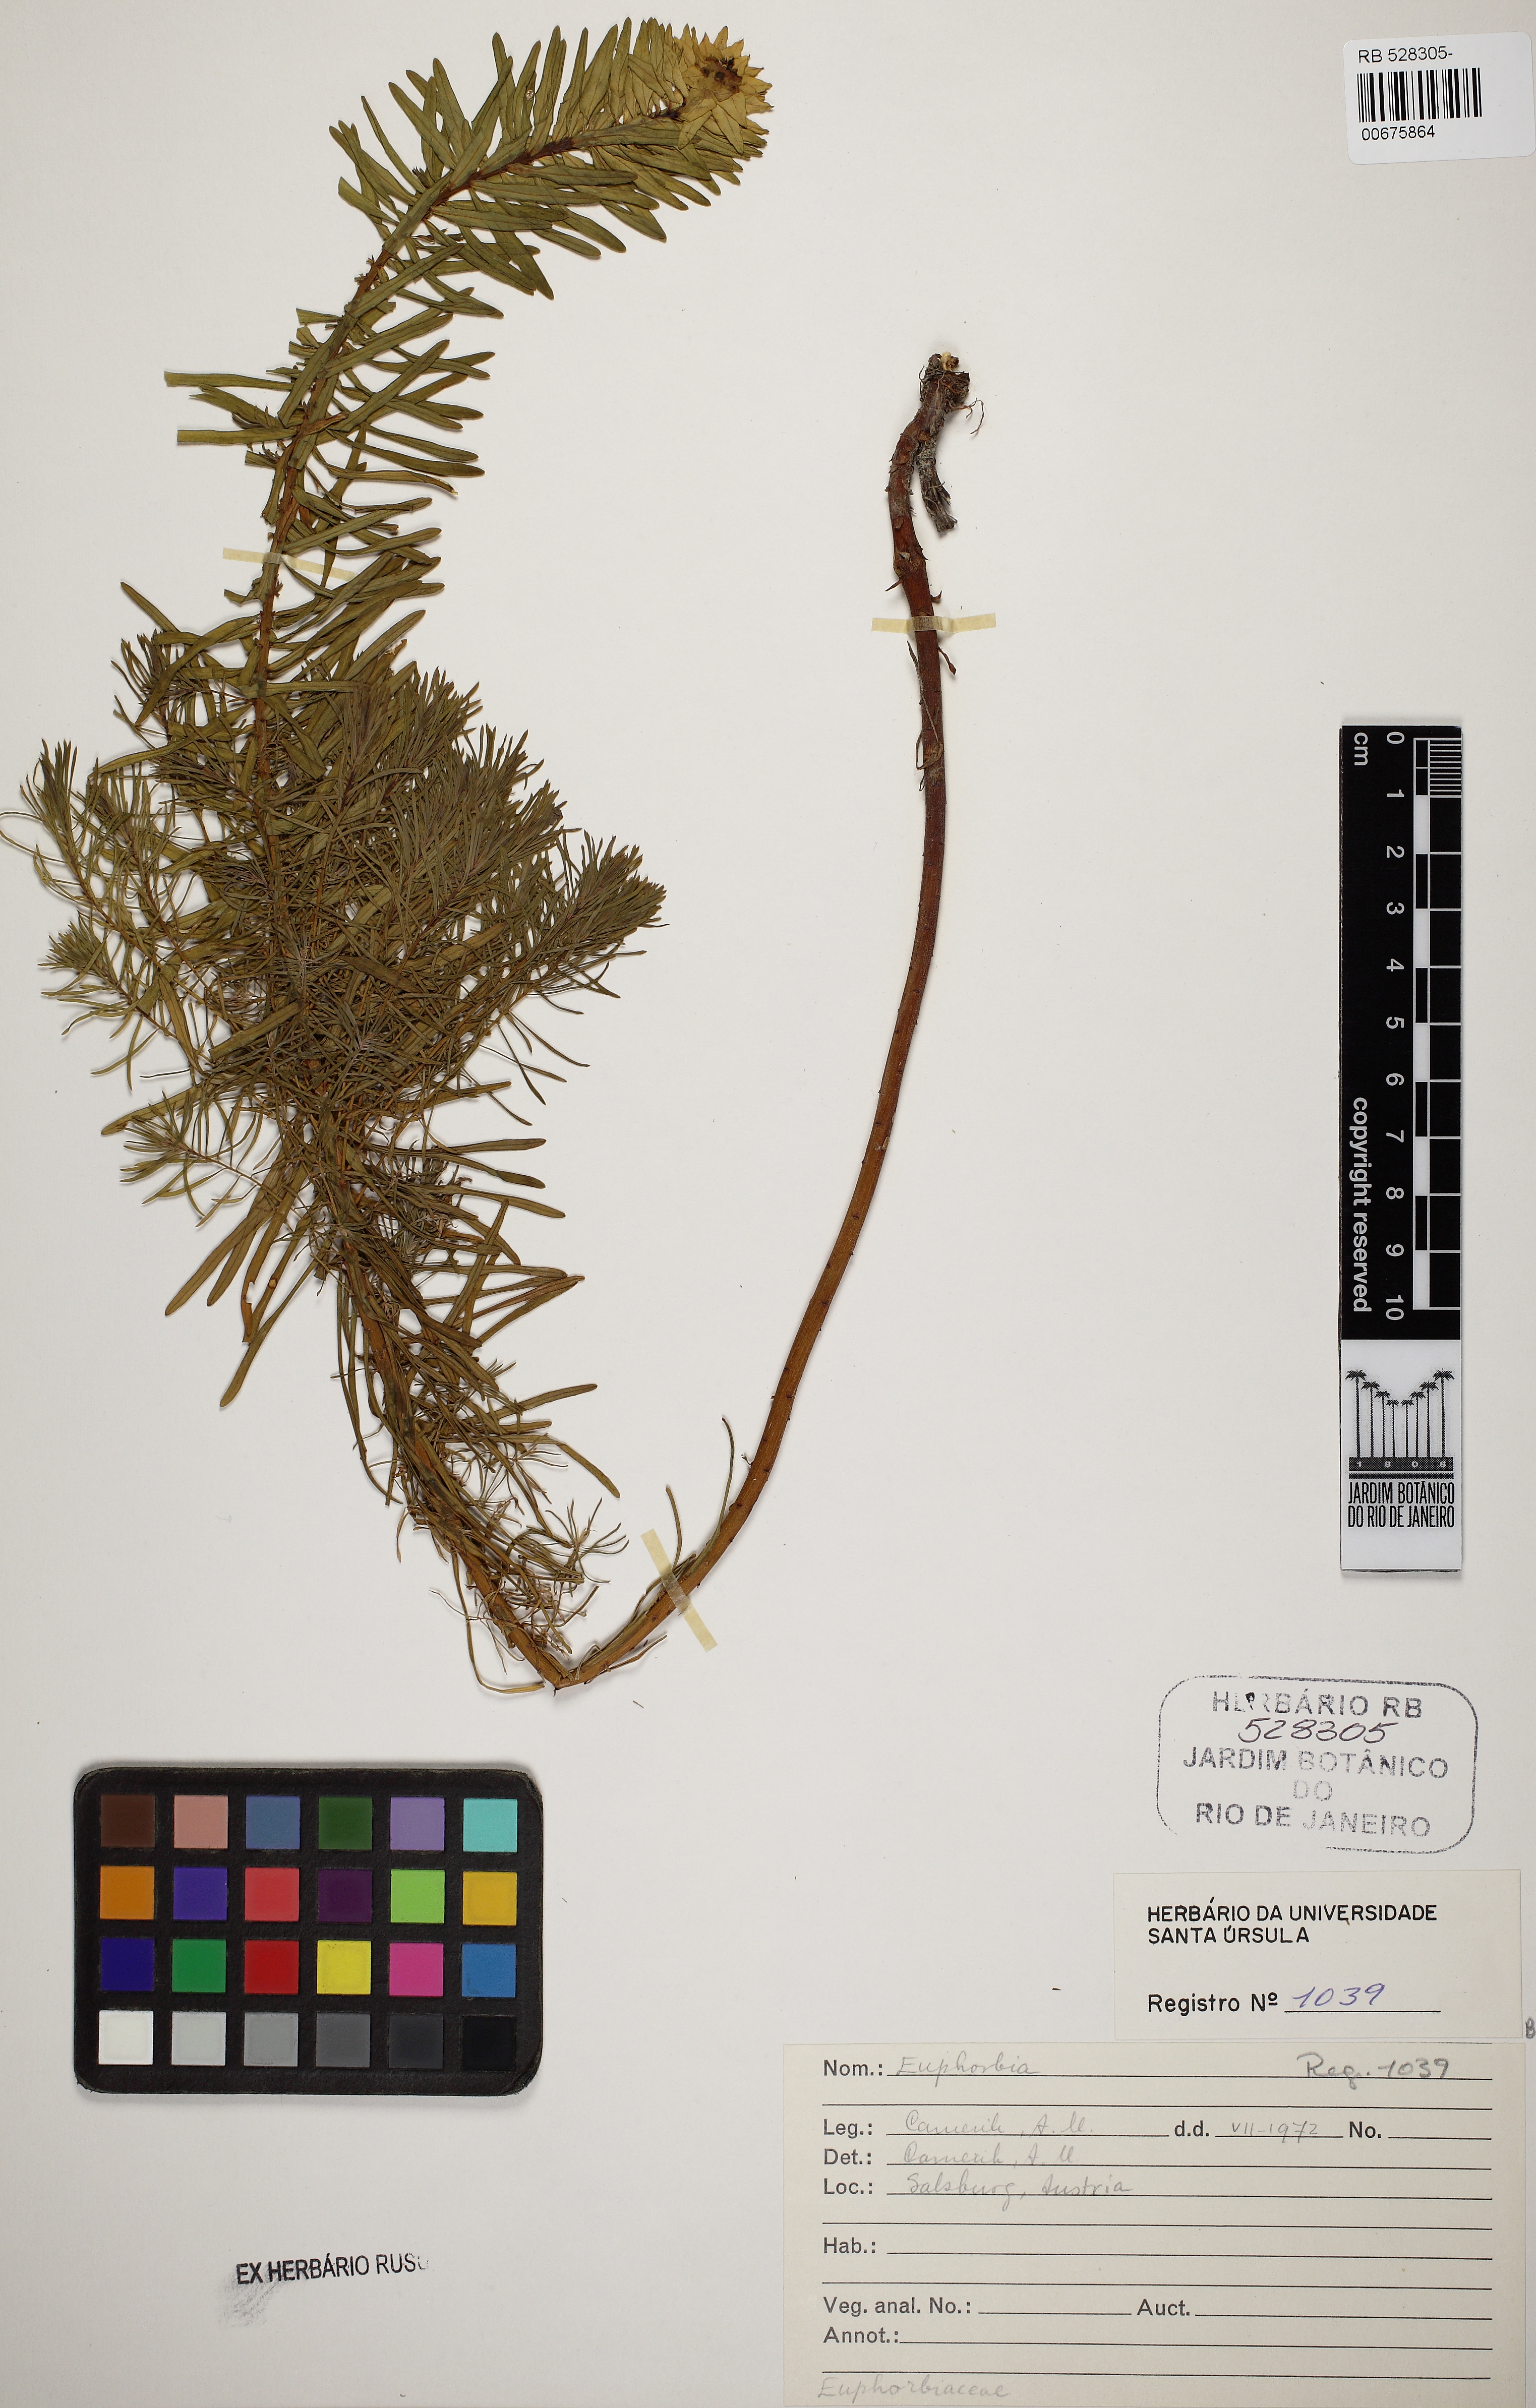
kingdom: Plantae
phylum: Tracheophyta
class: Magnoliopsida
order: Malpighiales
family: Euphorbiaceae
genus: Euphorbia
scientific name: Euphorbia myrsinites
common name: Myrtle spurge
